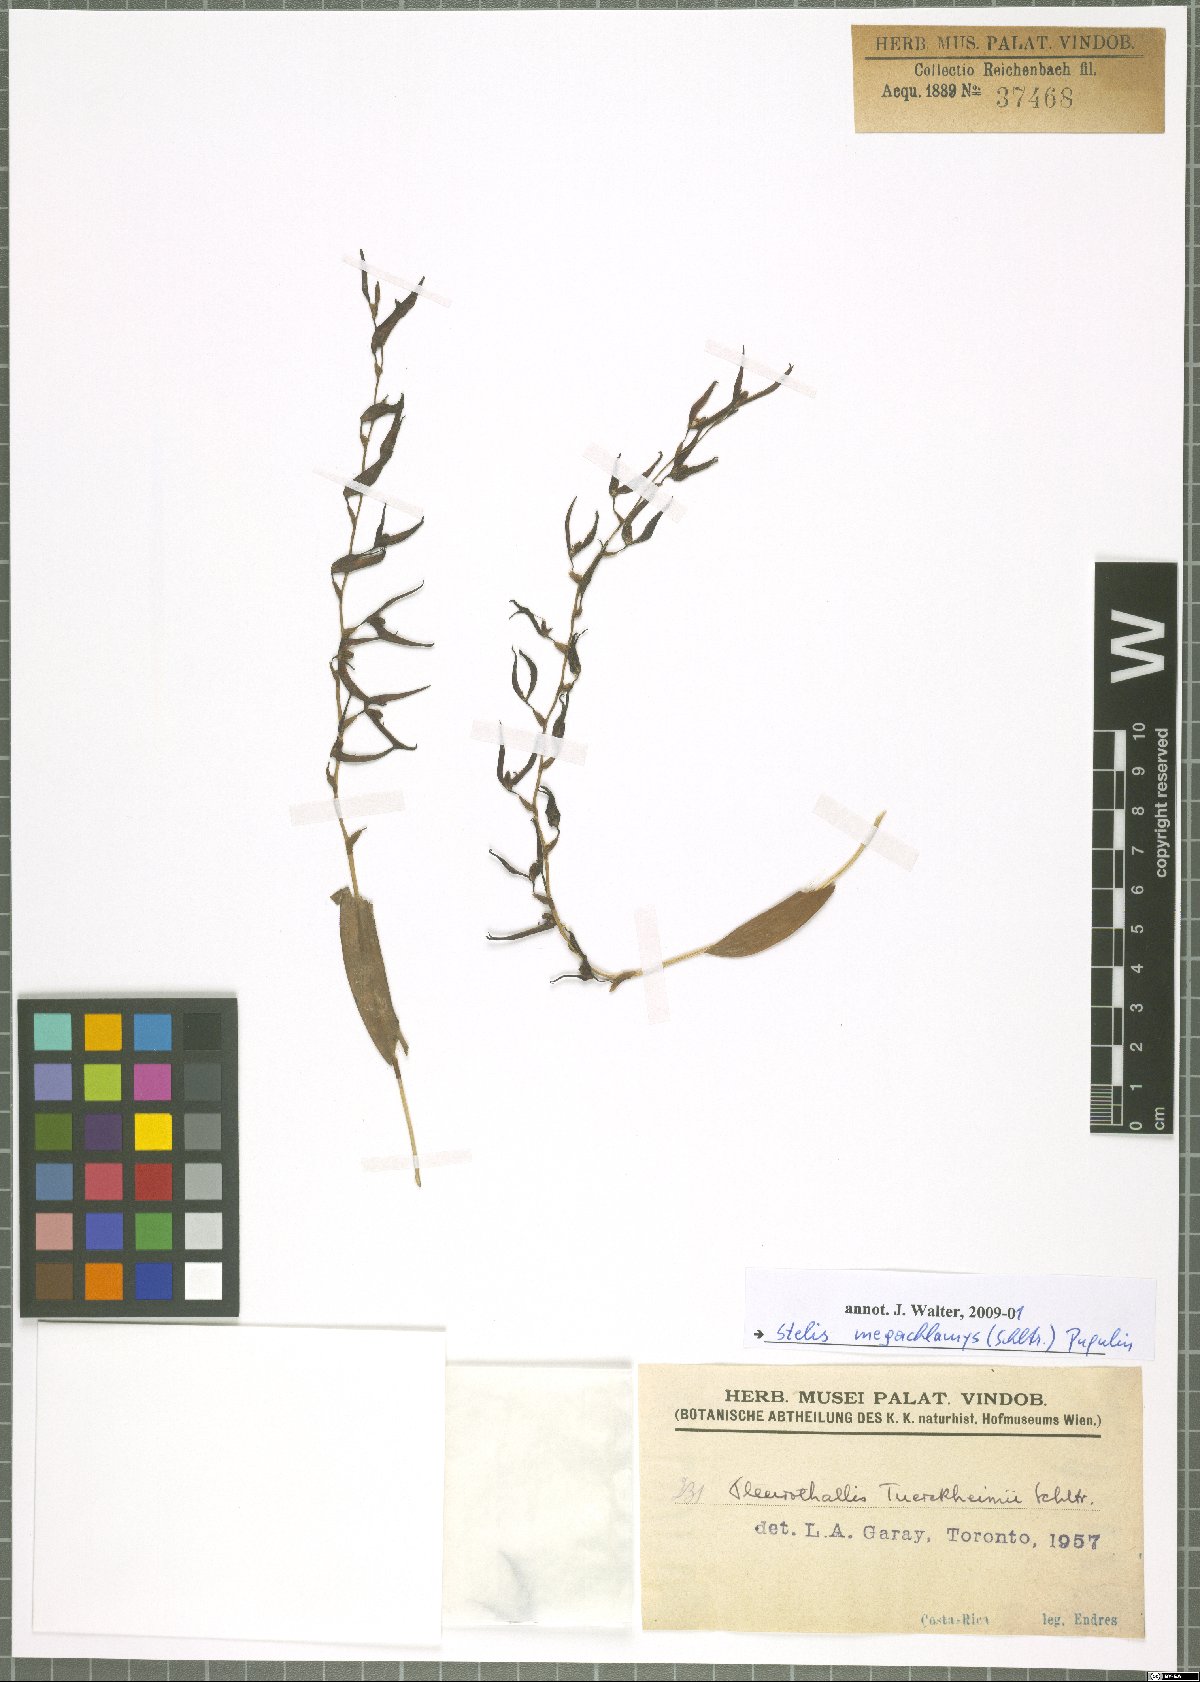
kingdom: Plantae
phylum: Tracheophyta
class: Liliopsida
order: Asparagales
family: Orchidaceae
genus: Stelis
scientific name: Stelis megachlamys
